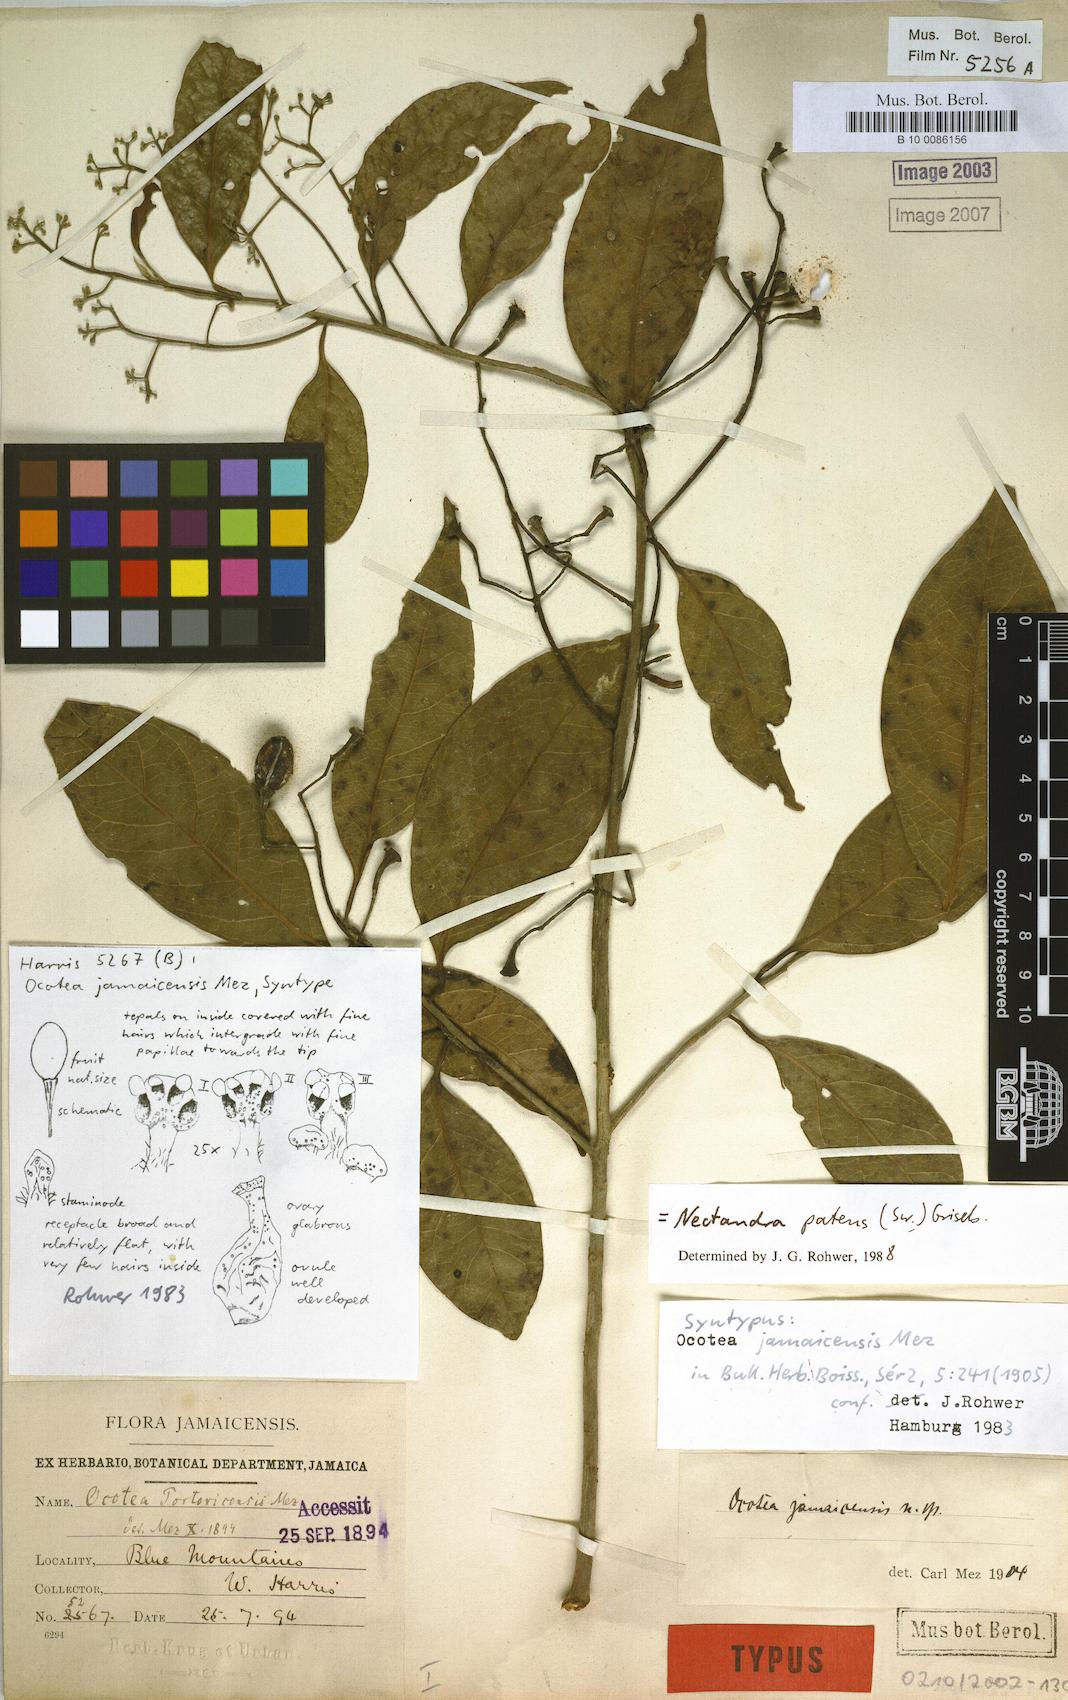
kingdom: Plantae
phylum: Tracheophyta
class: Magnoliopsida
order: Laurales
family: Lauraceae
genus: Damburneya
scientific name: Damburneya patens
